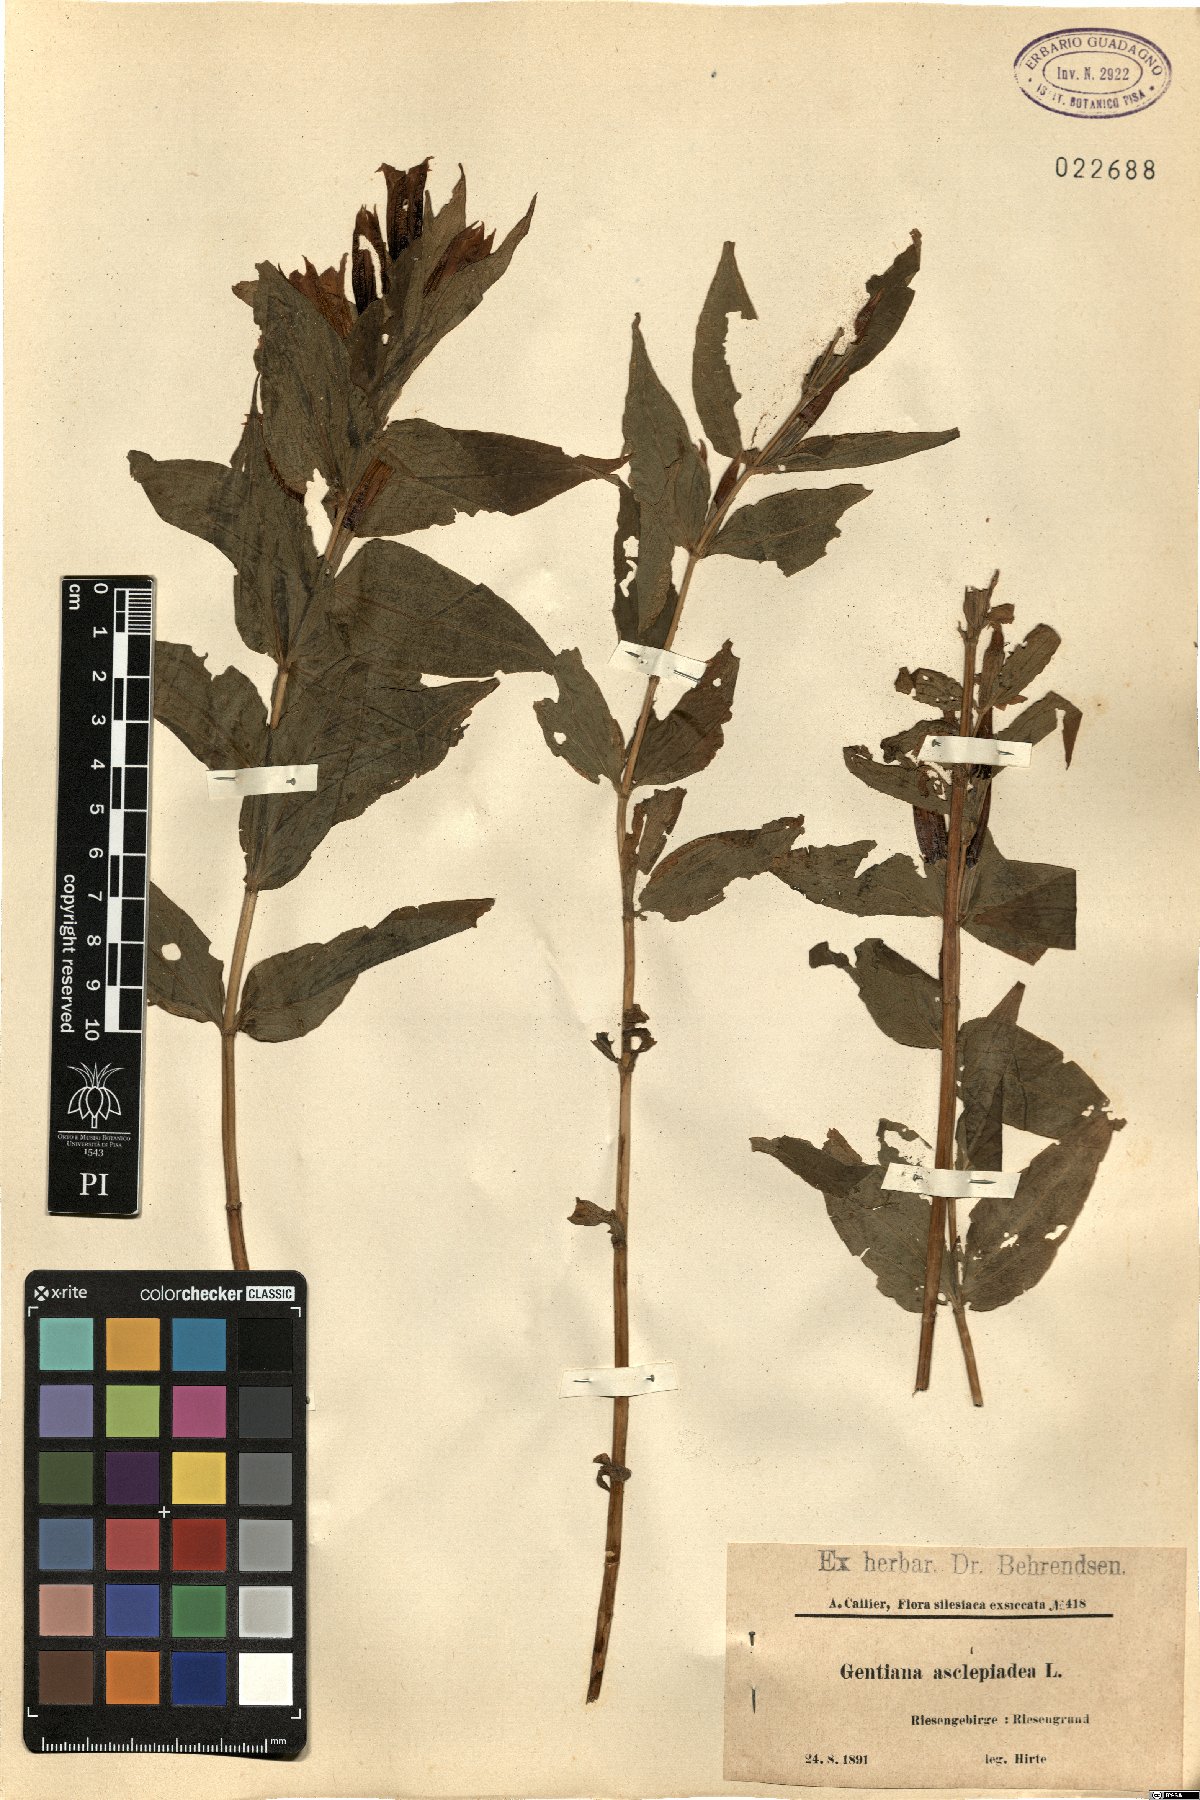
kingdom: Plantae
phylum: Tracheophyta
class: Magnoliopsida
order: Gentianales
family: Gentianaceae
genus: Gentiana
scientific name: Gentiana asclepiadea
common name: Willow gentian
